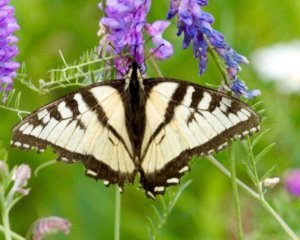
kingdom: Animalia
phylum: Arthropoda
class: Insecta
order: Lepidoptera
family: Papilionidae
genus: Pterourus
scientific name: Pterourus canadensis
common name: Canadian Tiger Swallowtail
